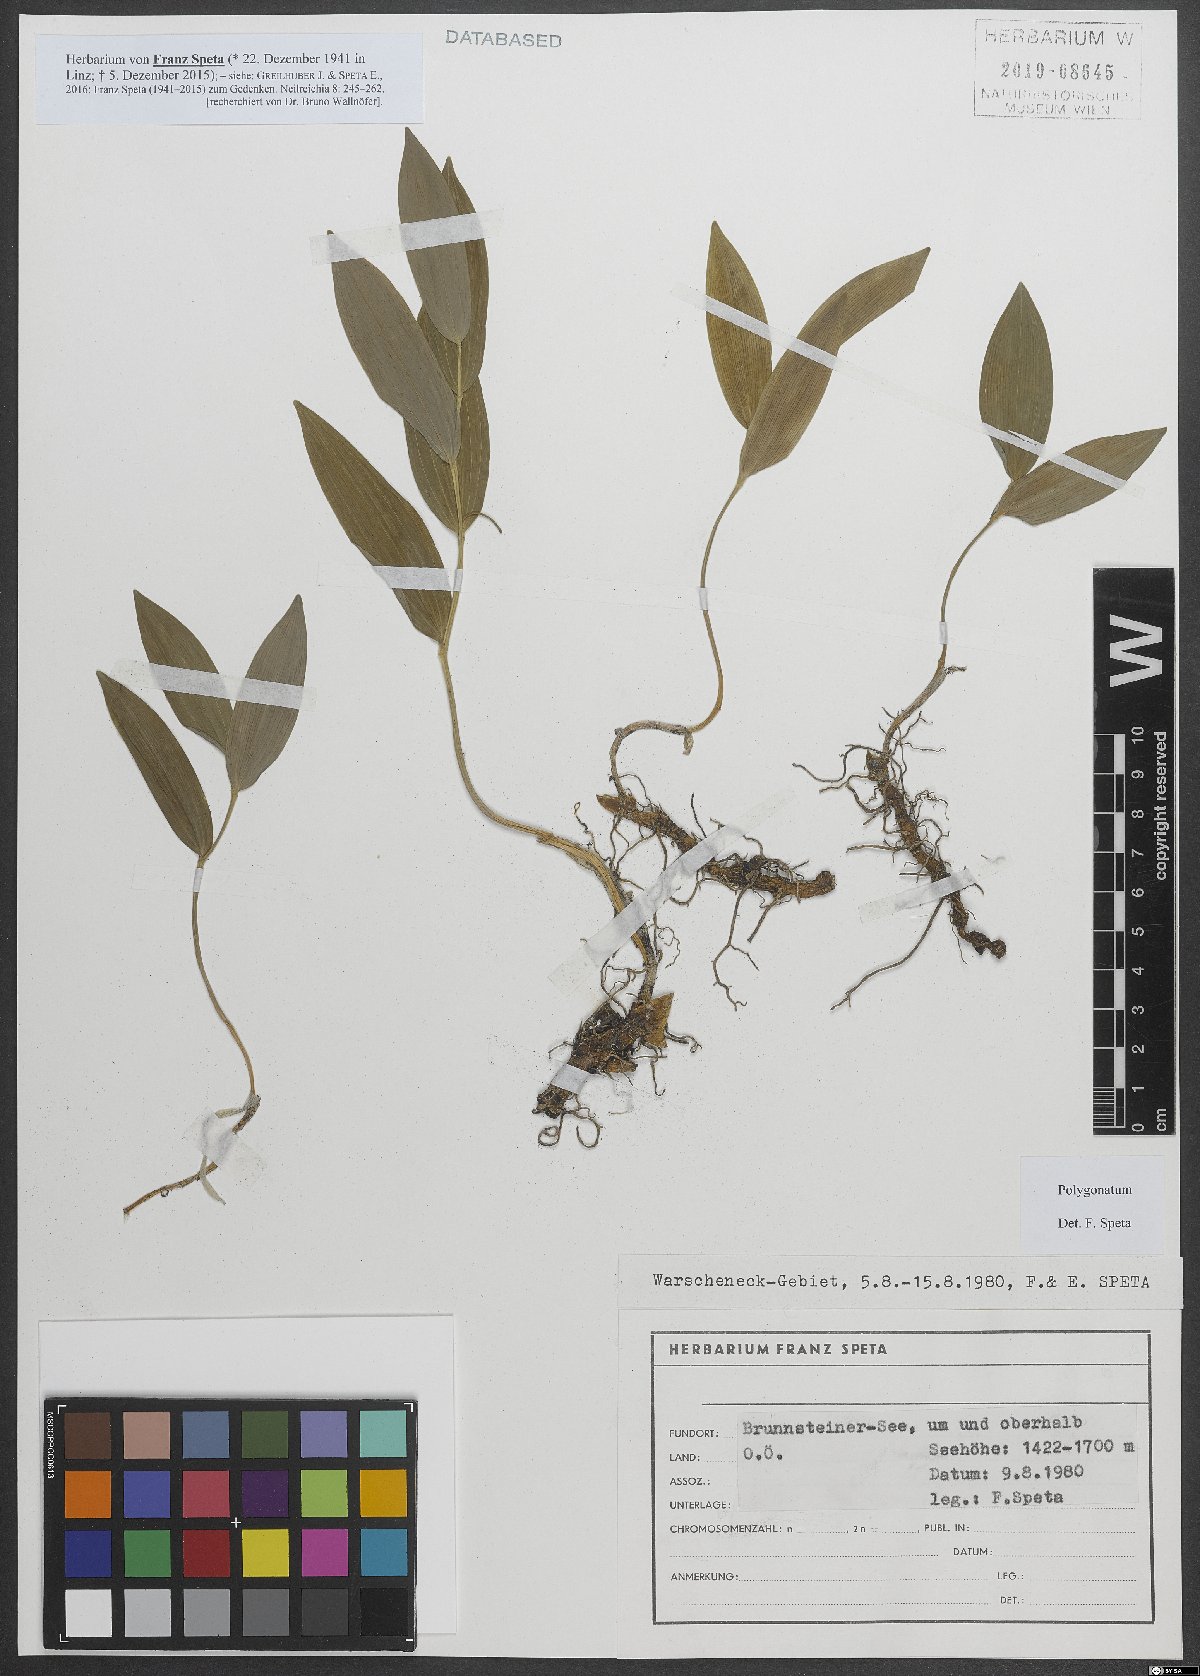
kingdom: Plantae
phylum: Tracheophyta
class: Liliopsida
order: Asparagales
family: Asparagaceae
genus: Polygonatum
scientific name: Polygonatum
